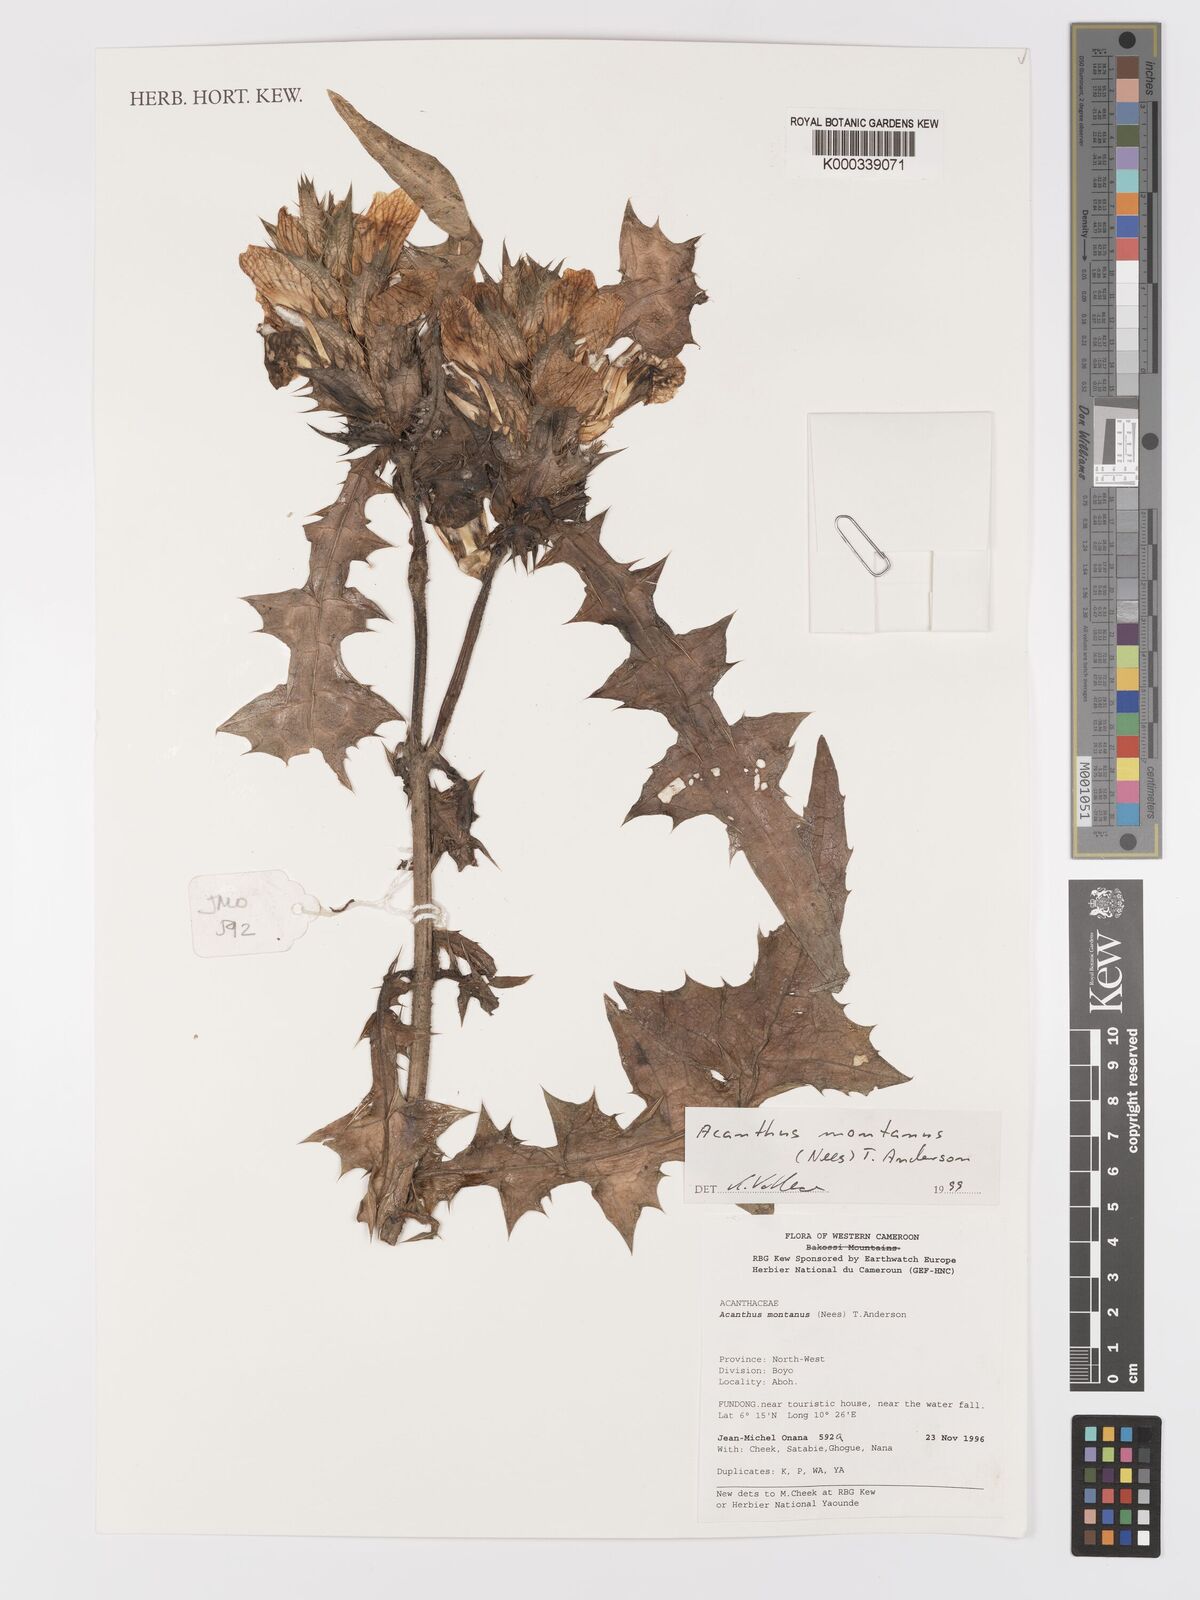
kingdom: Plantae
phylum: Tracheophyta
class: Magnoliopsida
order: Lamiales
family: Acanthaceae
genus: Acanthus
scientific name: Acanthus montanus
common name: Mountain thistle
